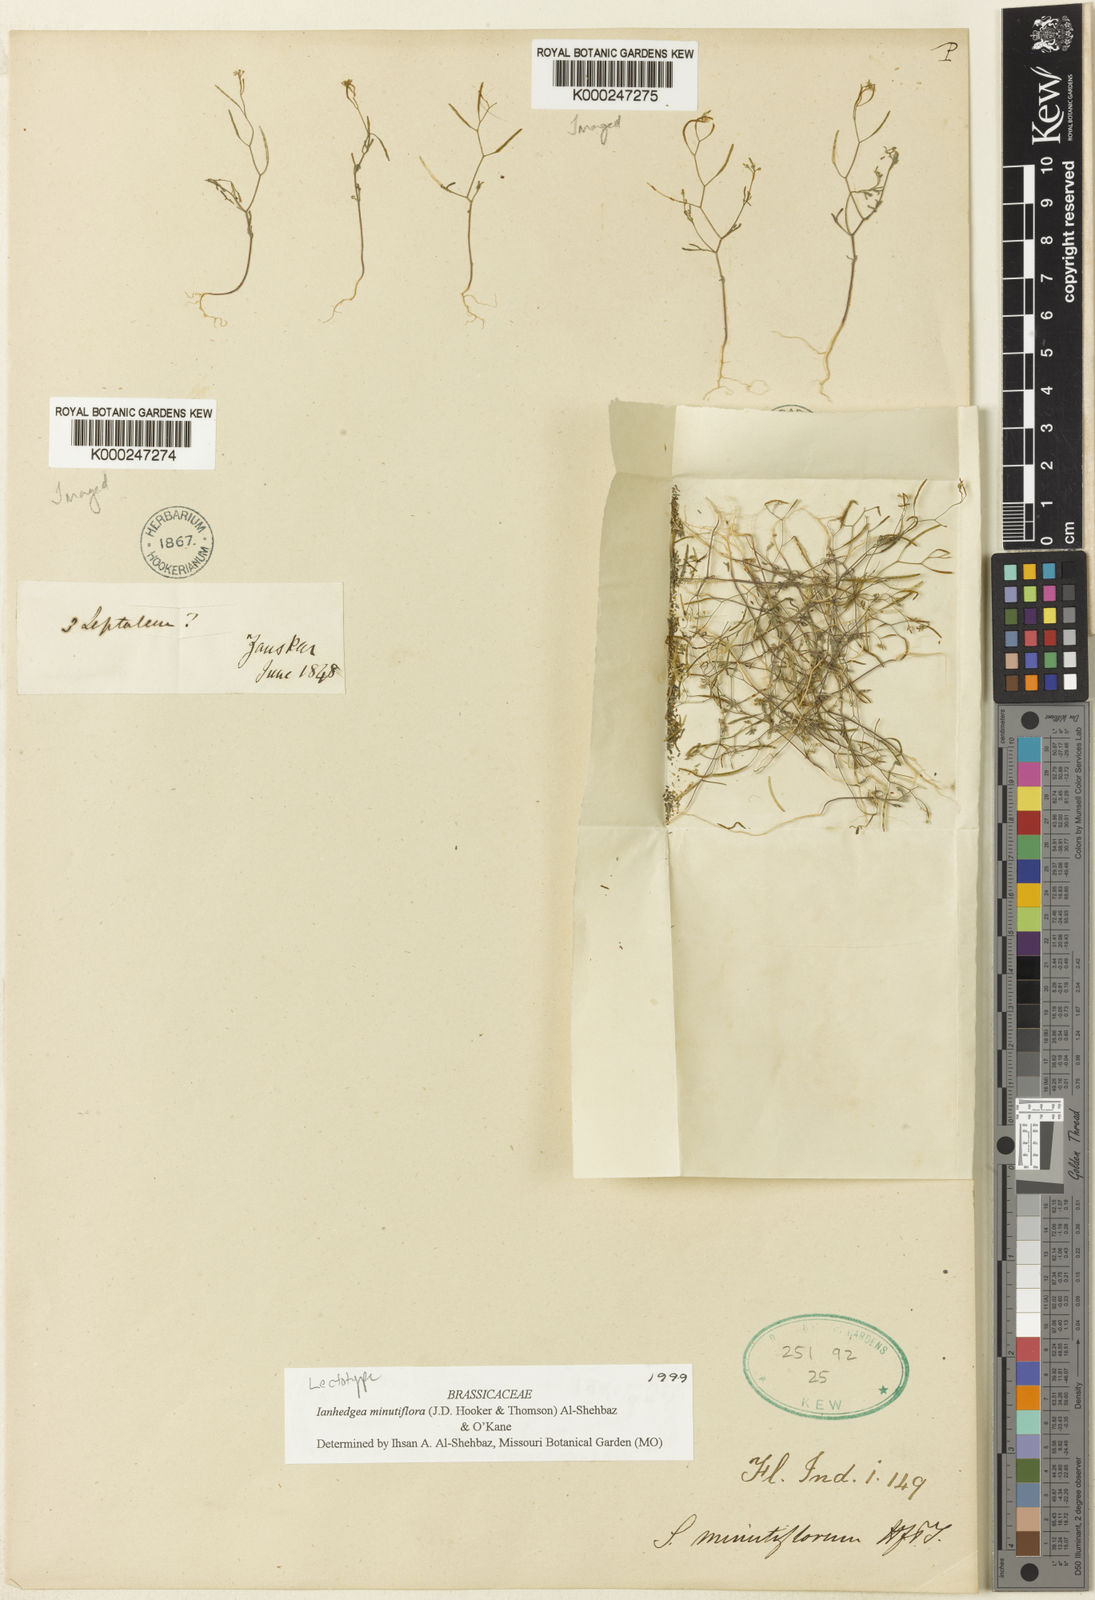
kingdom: Plantae
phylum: Tracheophyta
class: Magnoliopsida
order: Brassicales
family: Brassicaceae
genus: Ianhedgea
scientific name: Ianhedgea minutiflora
